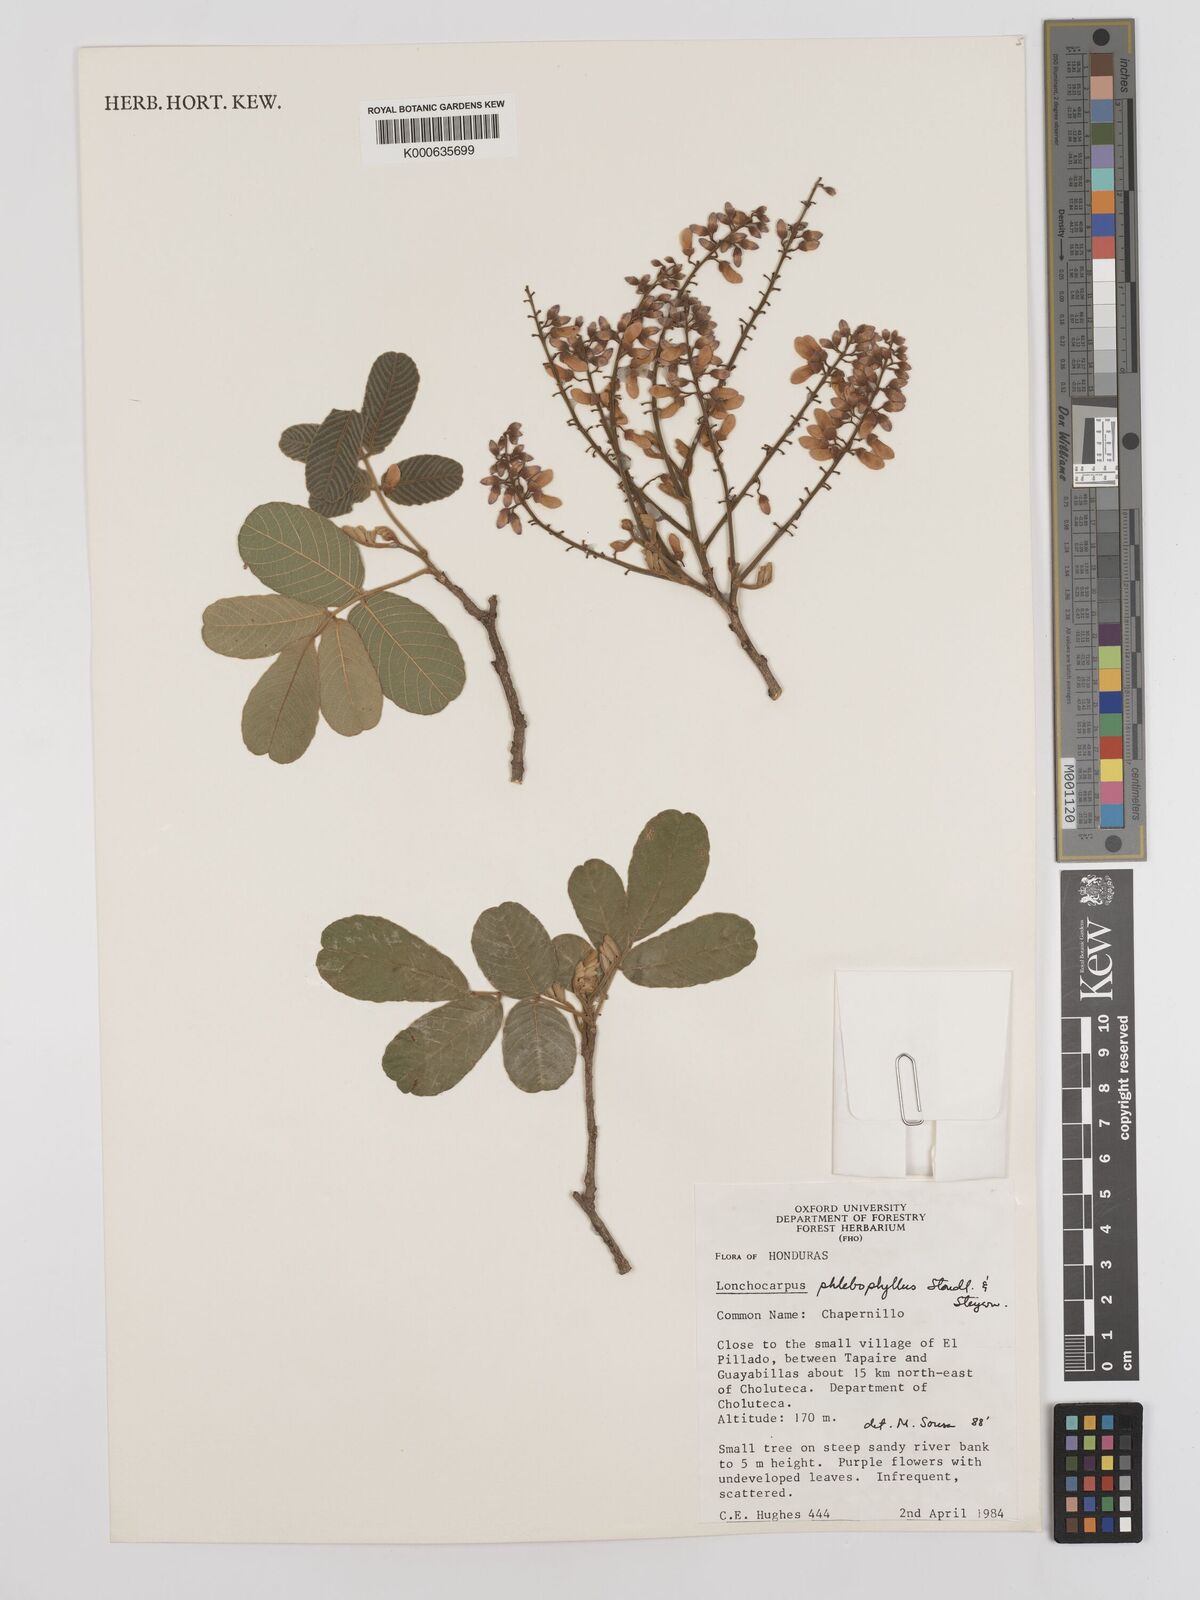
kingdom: Plantae
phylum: Tracheophyta
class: Magnoliopsida
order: Fabales
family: Fabaceae
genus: Lonchocarpus
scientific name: Lonchocarpus phlebophyllus
